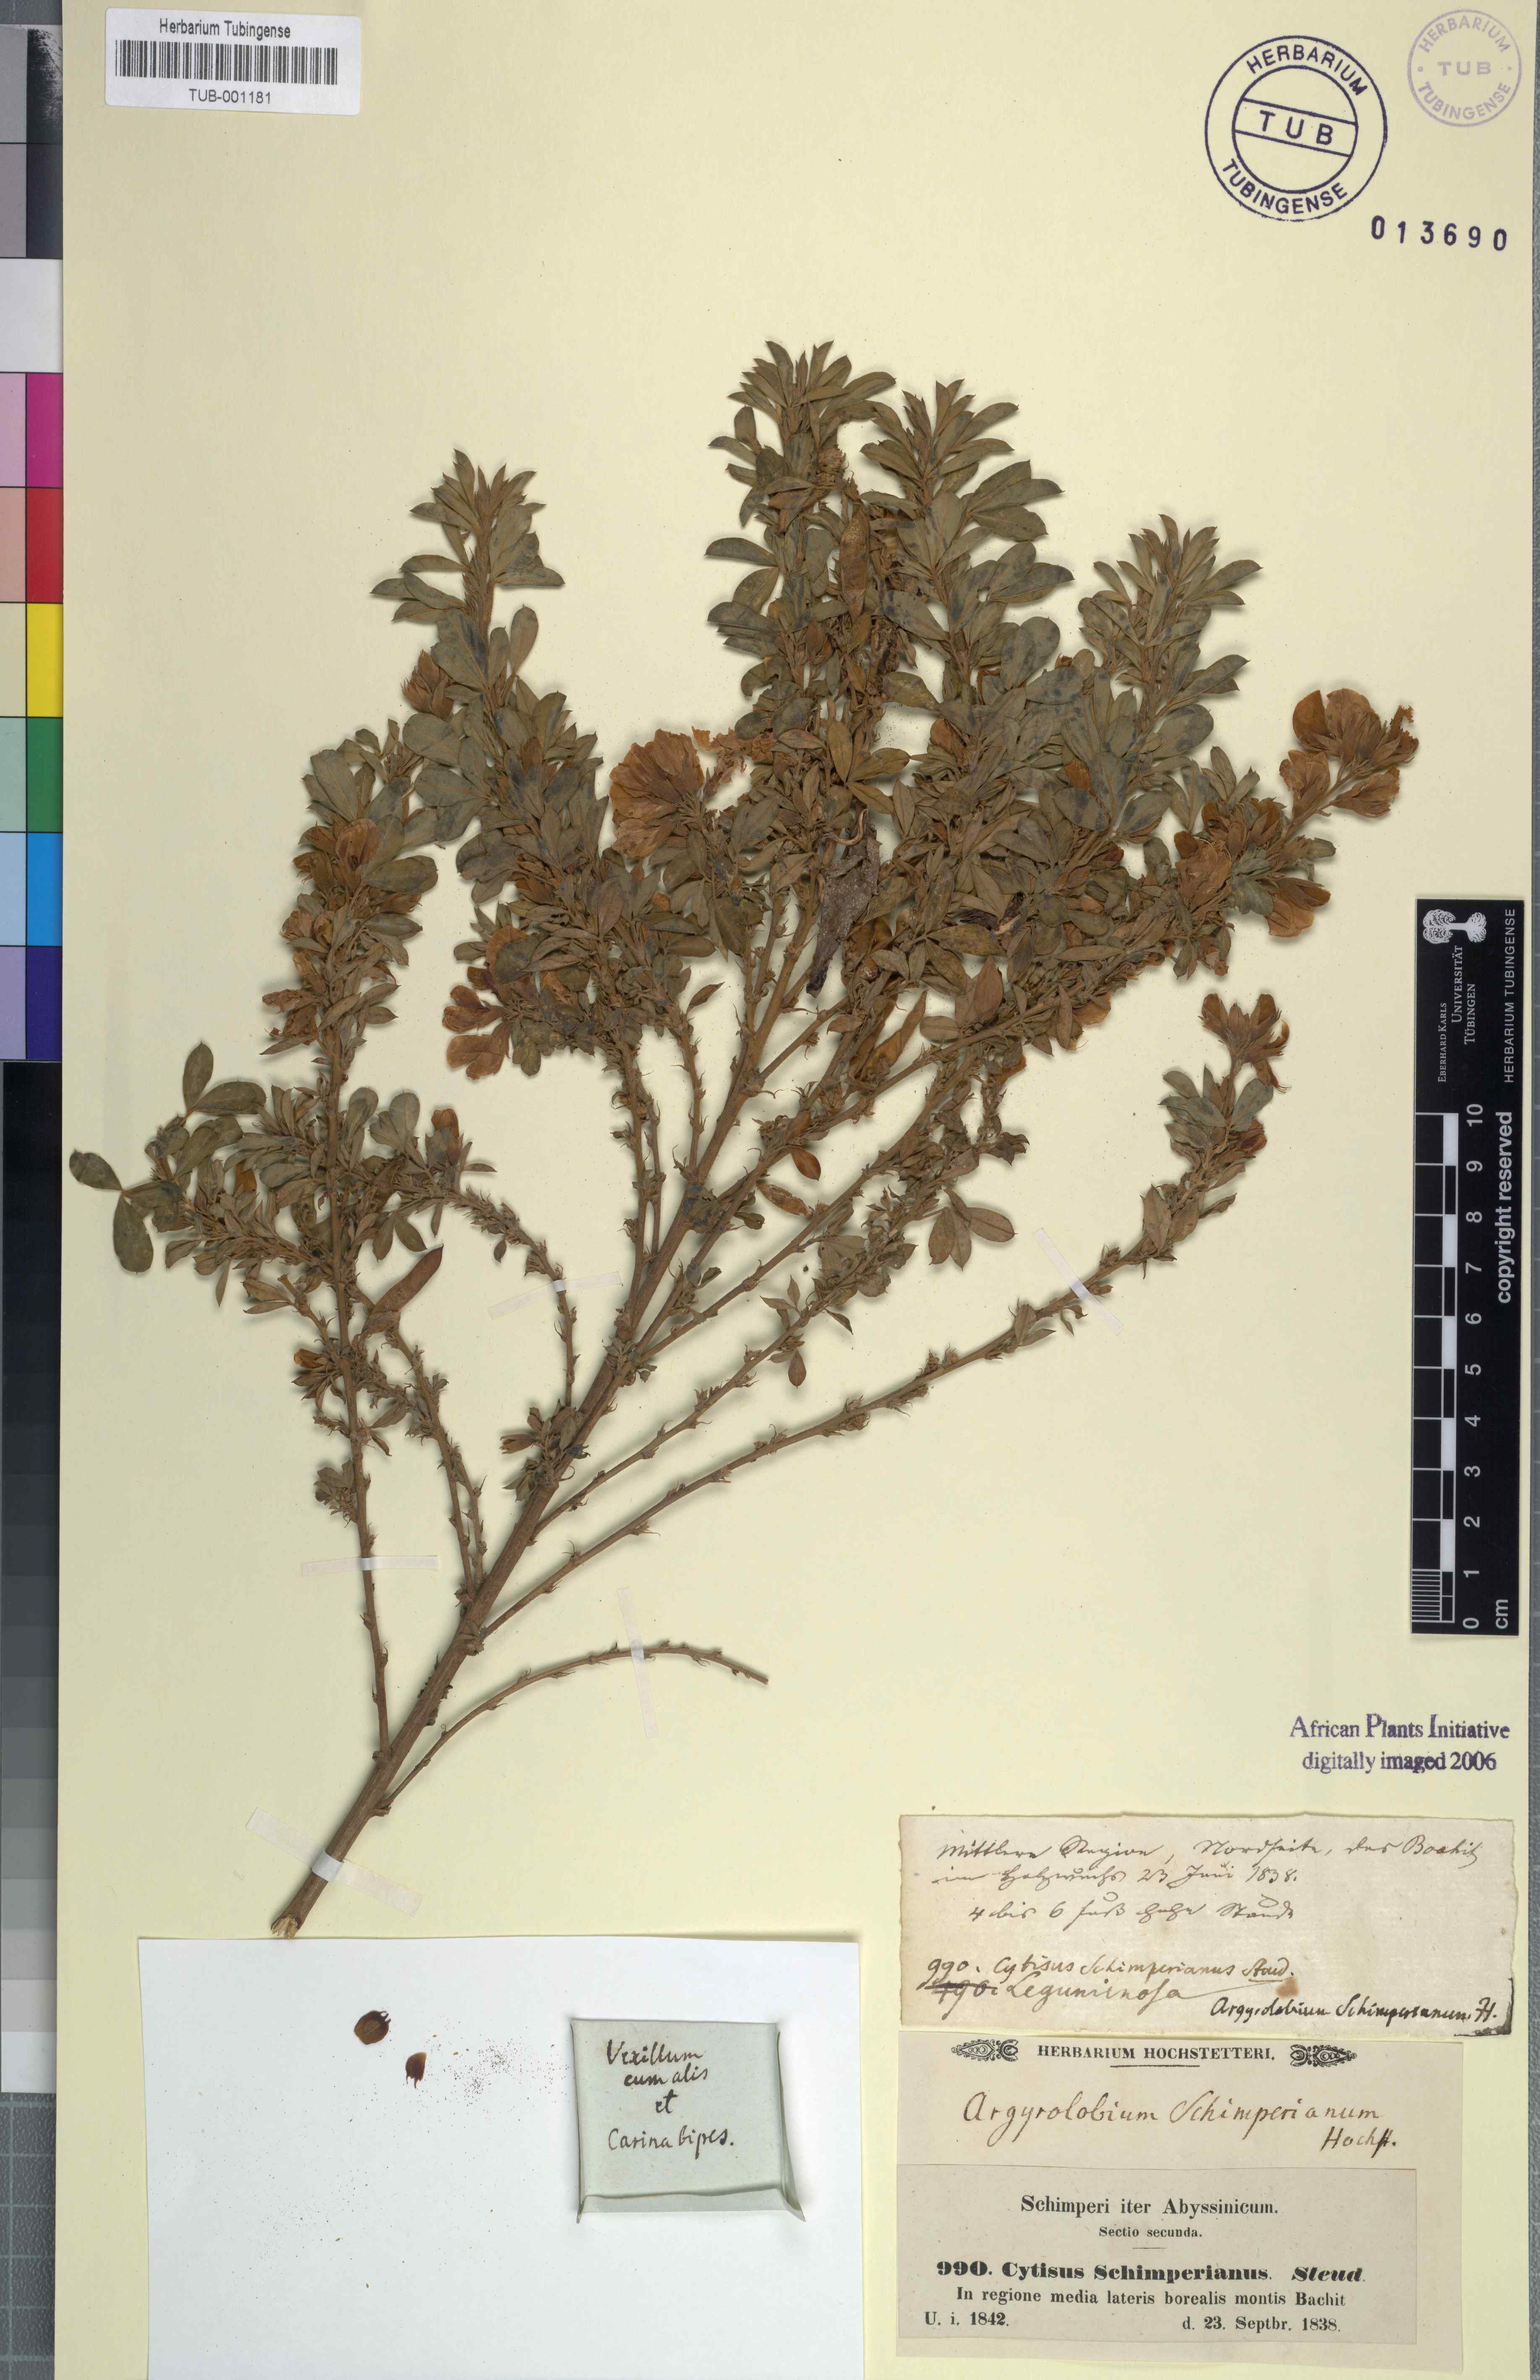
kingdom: Plantae
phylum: Tracheophyta
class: Magnoliopsida
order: Fabales
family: Fabaceae
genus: Argyrolobium
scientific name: Argyrolobium schimperianum
